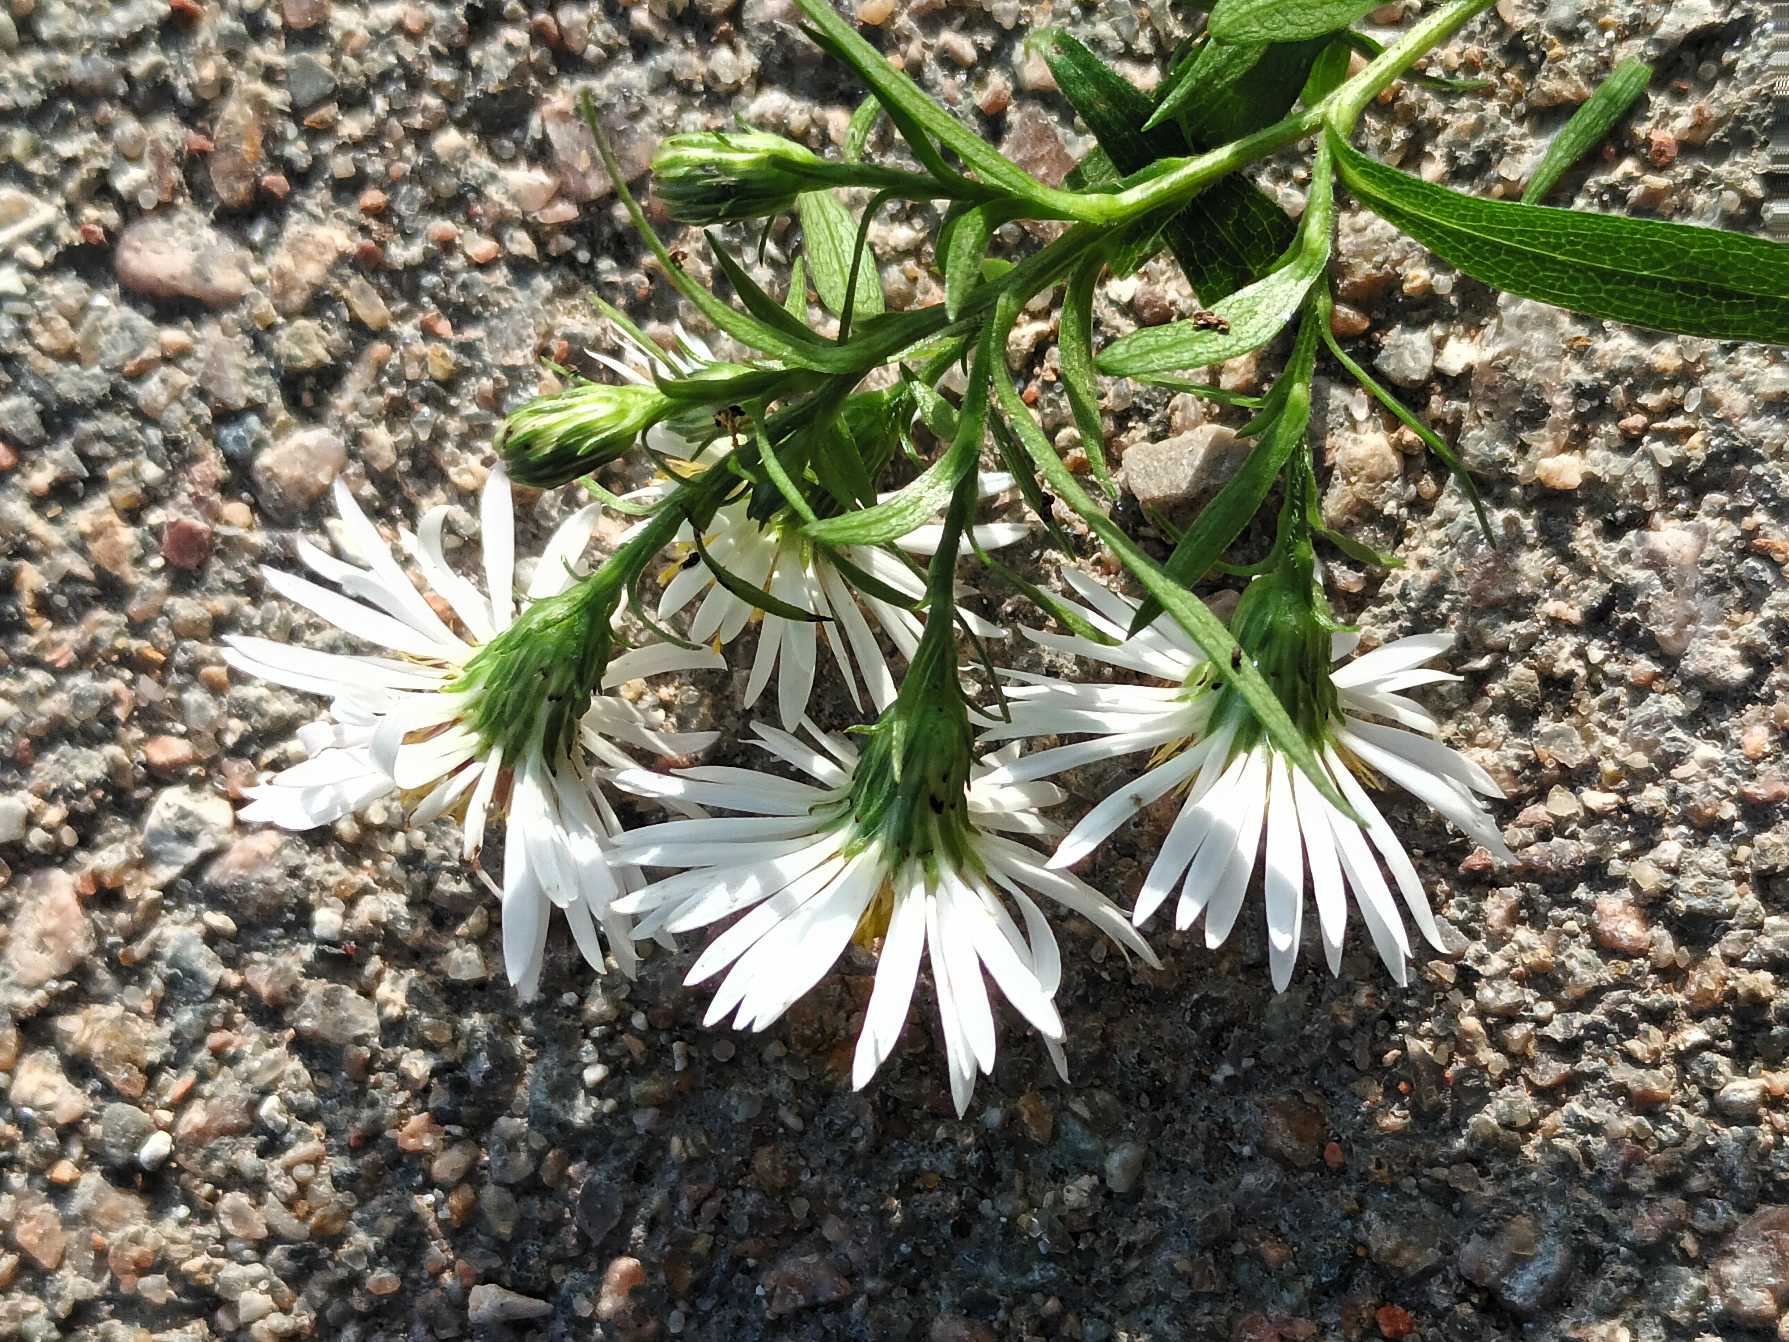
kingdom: Plantae
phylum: Tracheophyta
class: Magnoliopsida
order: Asterales
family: Asteraceae
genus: Symphyotrichum
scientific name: Symphyotrichum
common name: Asters (Symphyotrichum-slægten)
